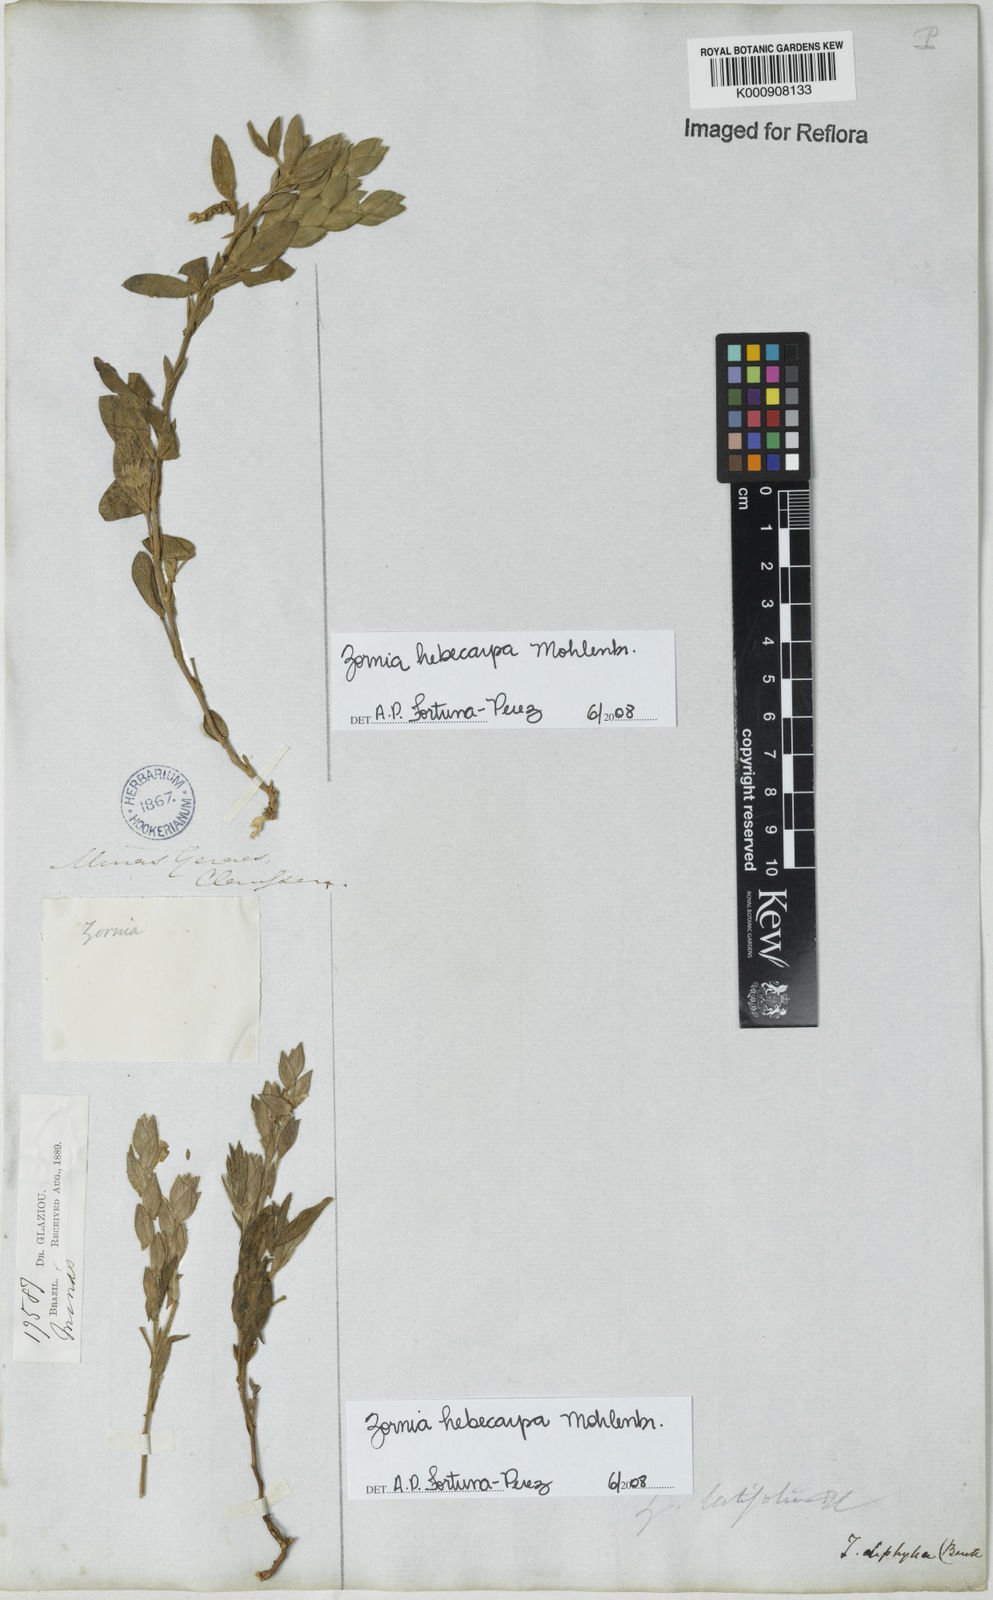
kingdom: Plantae
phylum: Tracheophyta
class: Magnoliopsida
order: Fabales
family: Fabaceae
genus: Zornia
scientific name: Zornia hebecarpa
